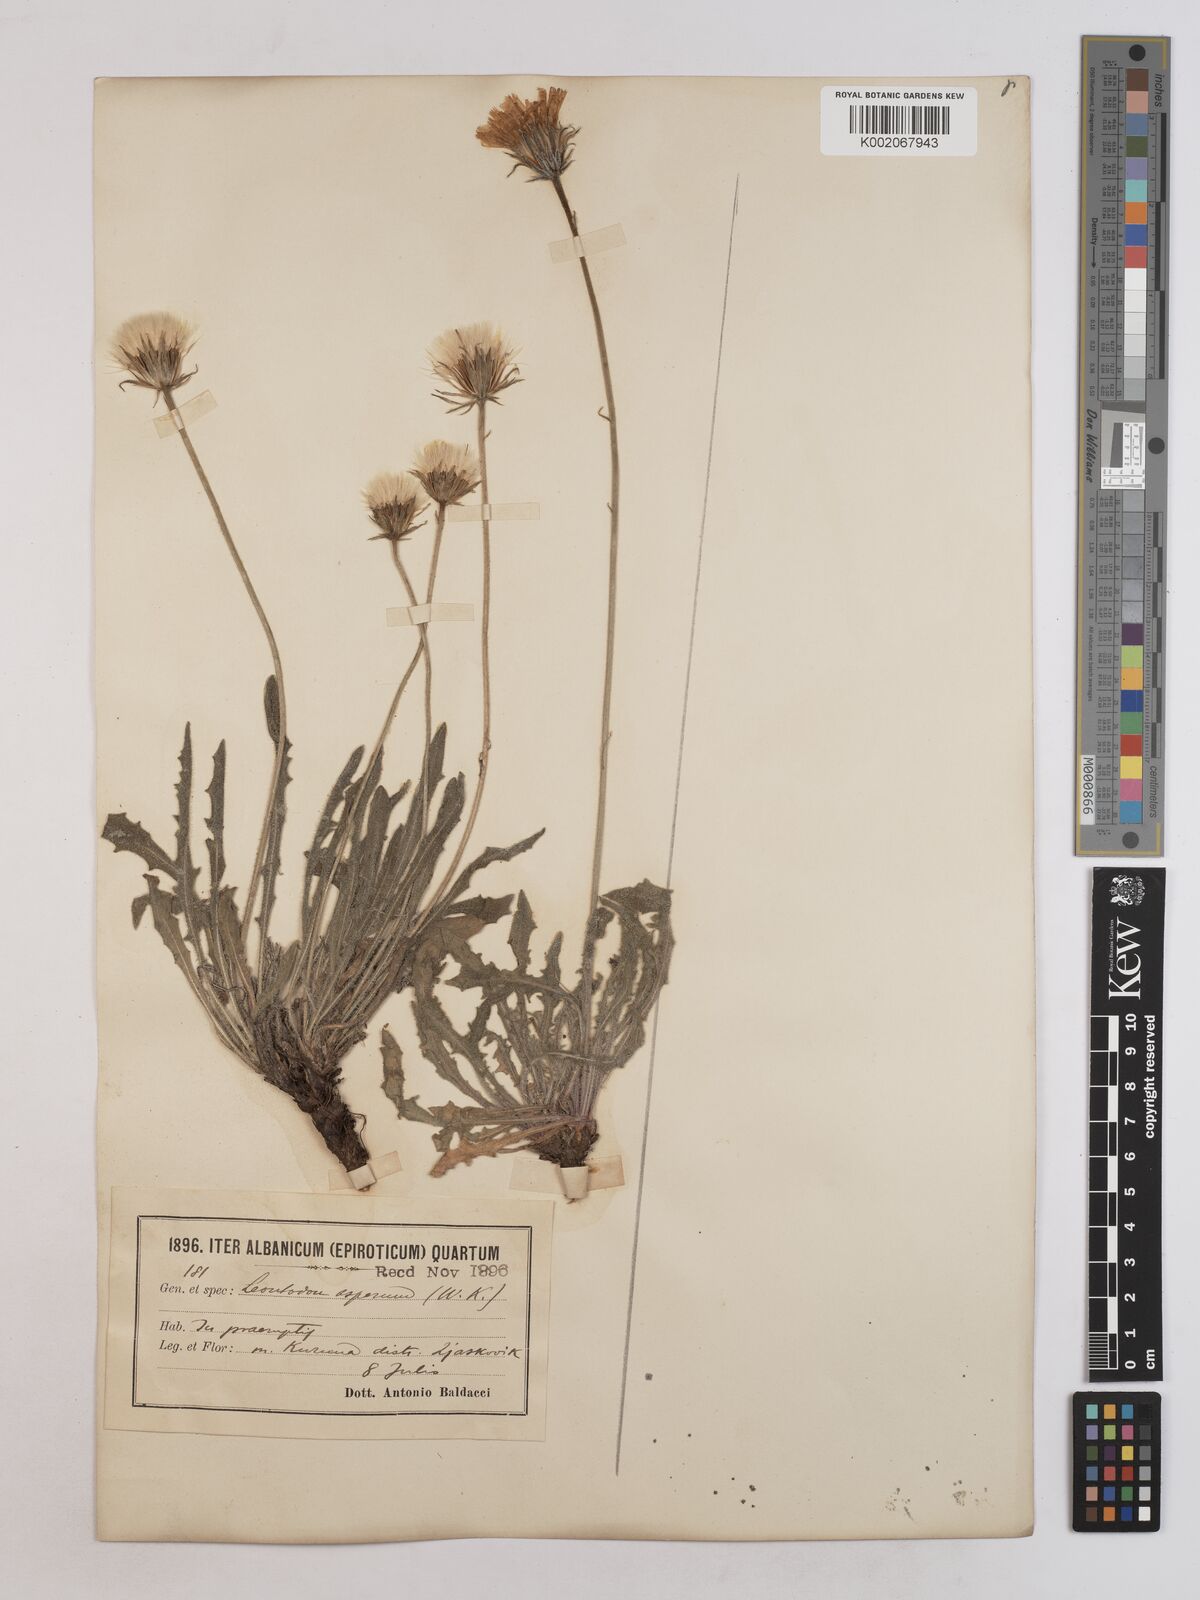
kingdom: Plantae
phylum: Tracheophyta
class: Magnoliopsida
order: Asterales
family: Asteraceae
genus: Leontodon
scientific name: Leontodon
